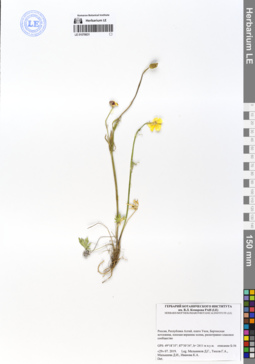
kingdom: Plantae
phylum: Tracheophyta
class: Magnoliopsida
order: Ranunculales
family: Ranunculaceae
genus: Ranunculus
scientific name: Ranunculus pedatifidus
